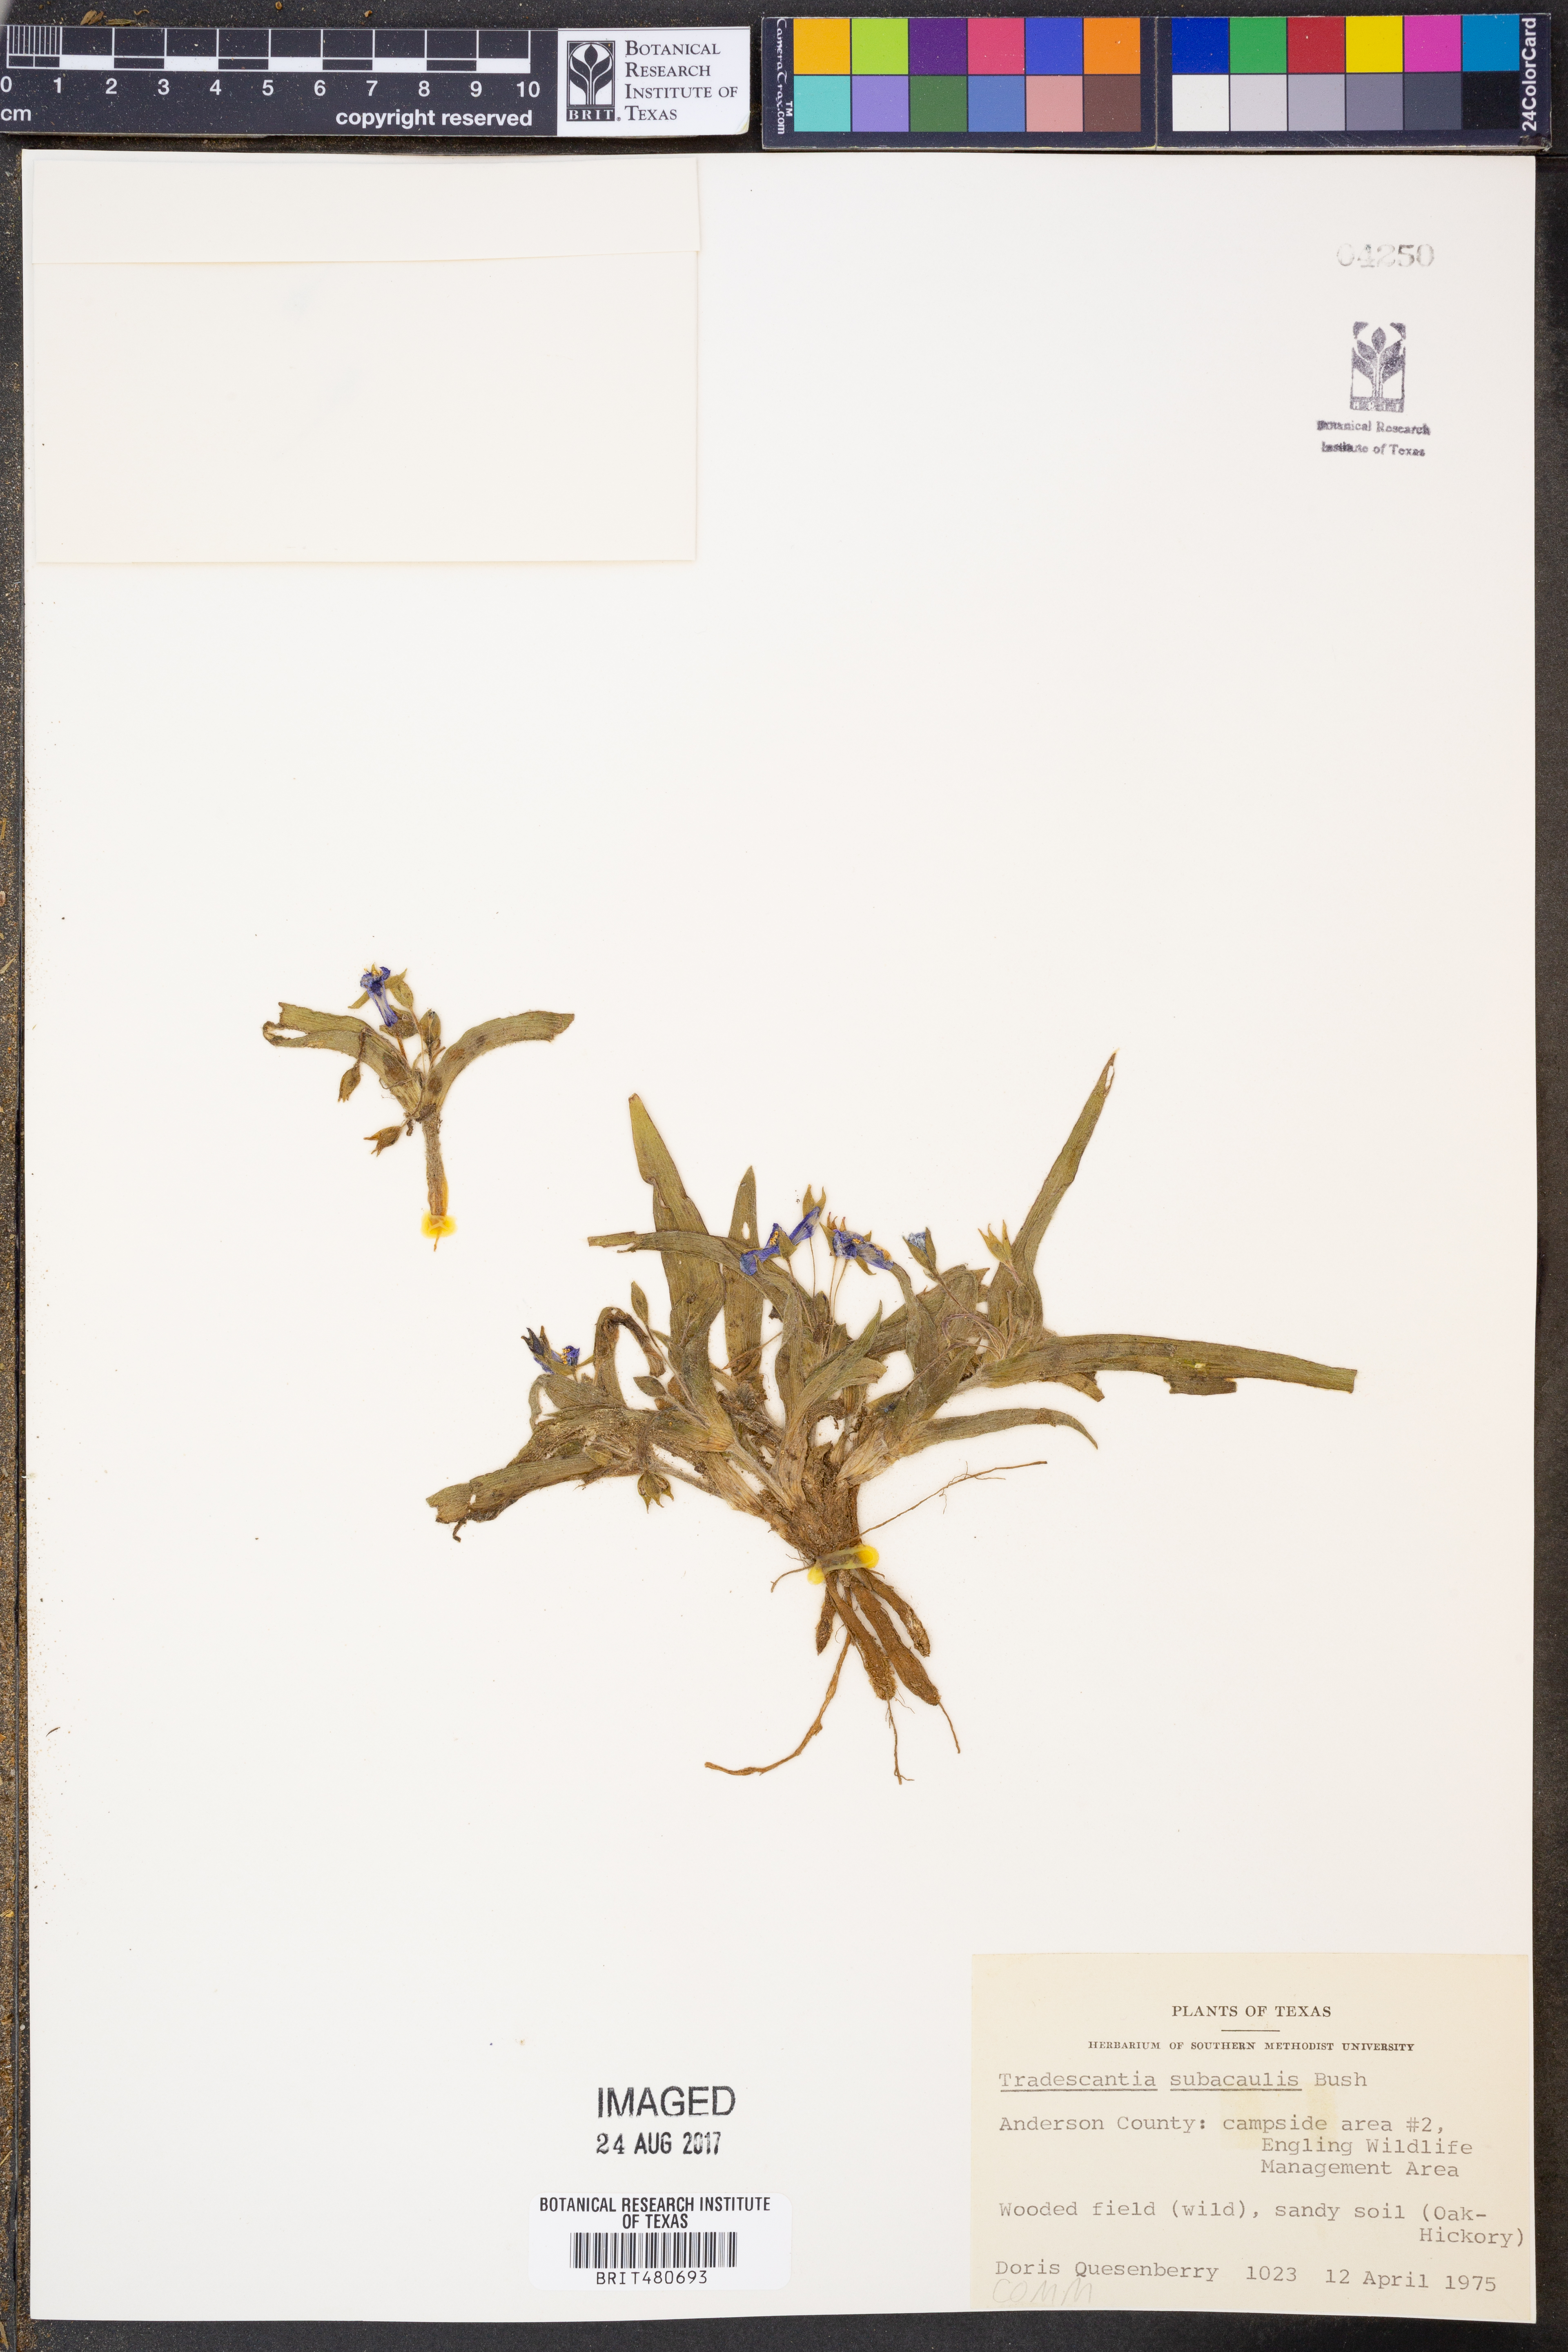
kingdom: Plantae
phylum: Tracheophyta
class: Liliopsida
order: Commelinales
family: Commelinaceae
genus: Tradescantia
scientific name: Tradescantia subacaulis
